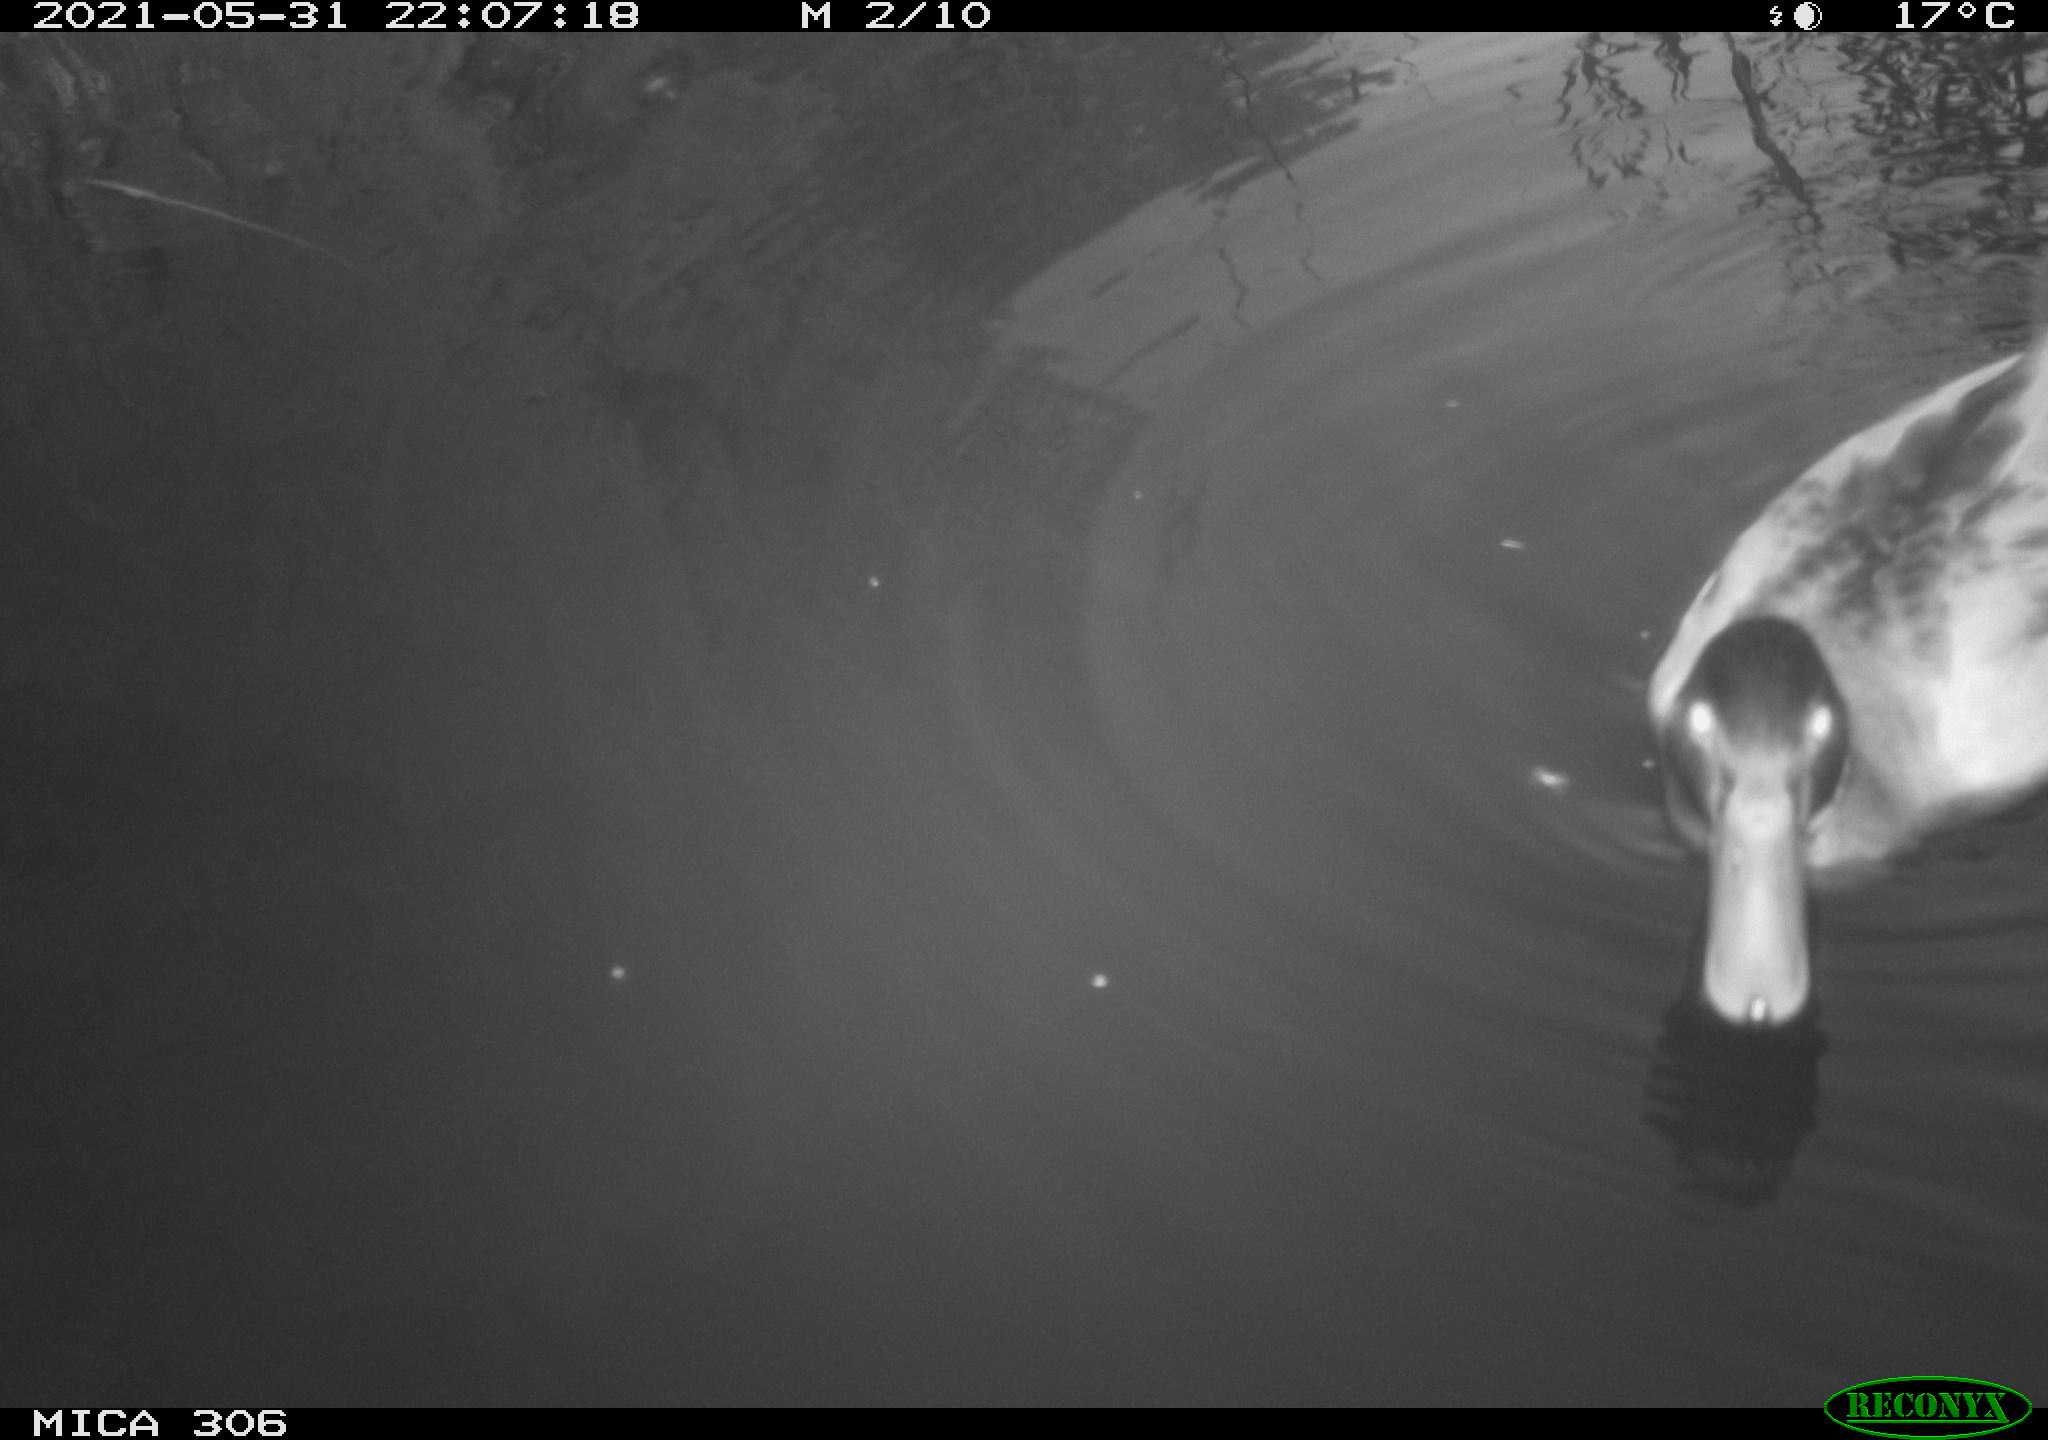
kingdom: Animalia
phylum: Chordata
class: Aves
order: Anseriformes
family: Anatidae
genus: Anas
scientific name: Anas platyrhynchos
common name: Mallard
